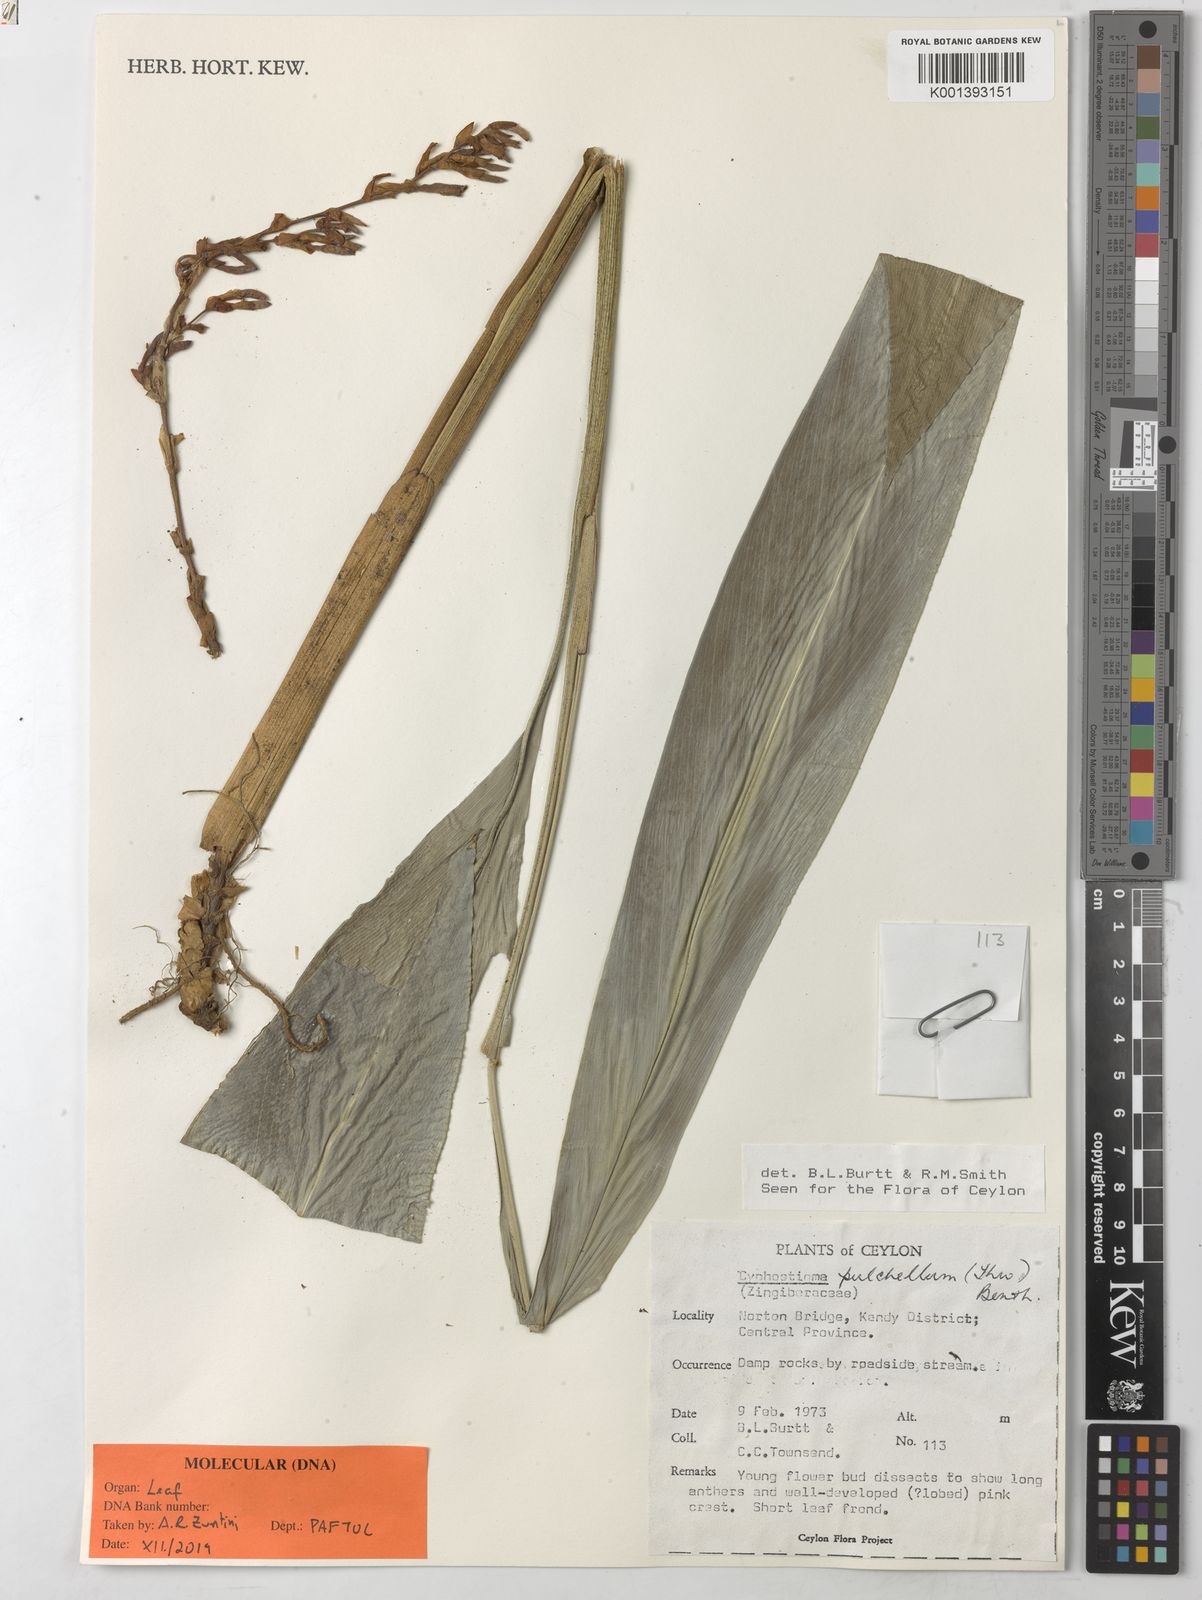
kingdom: Plantae
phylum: Tracheophyta
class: Liliopsida
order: Zingiberales
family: Zingiberaceae
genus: Cyphostigma
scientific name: Cyphostigma pulchellum
